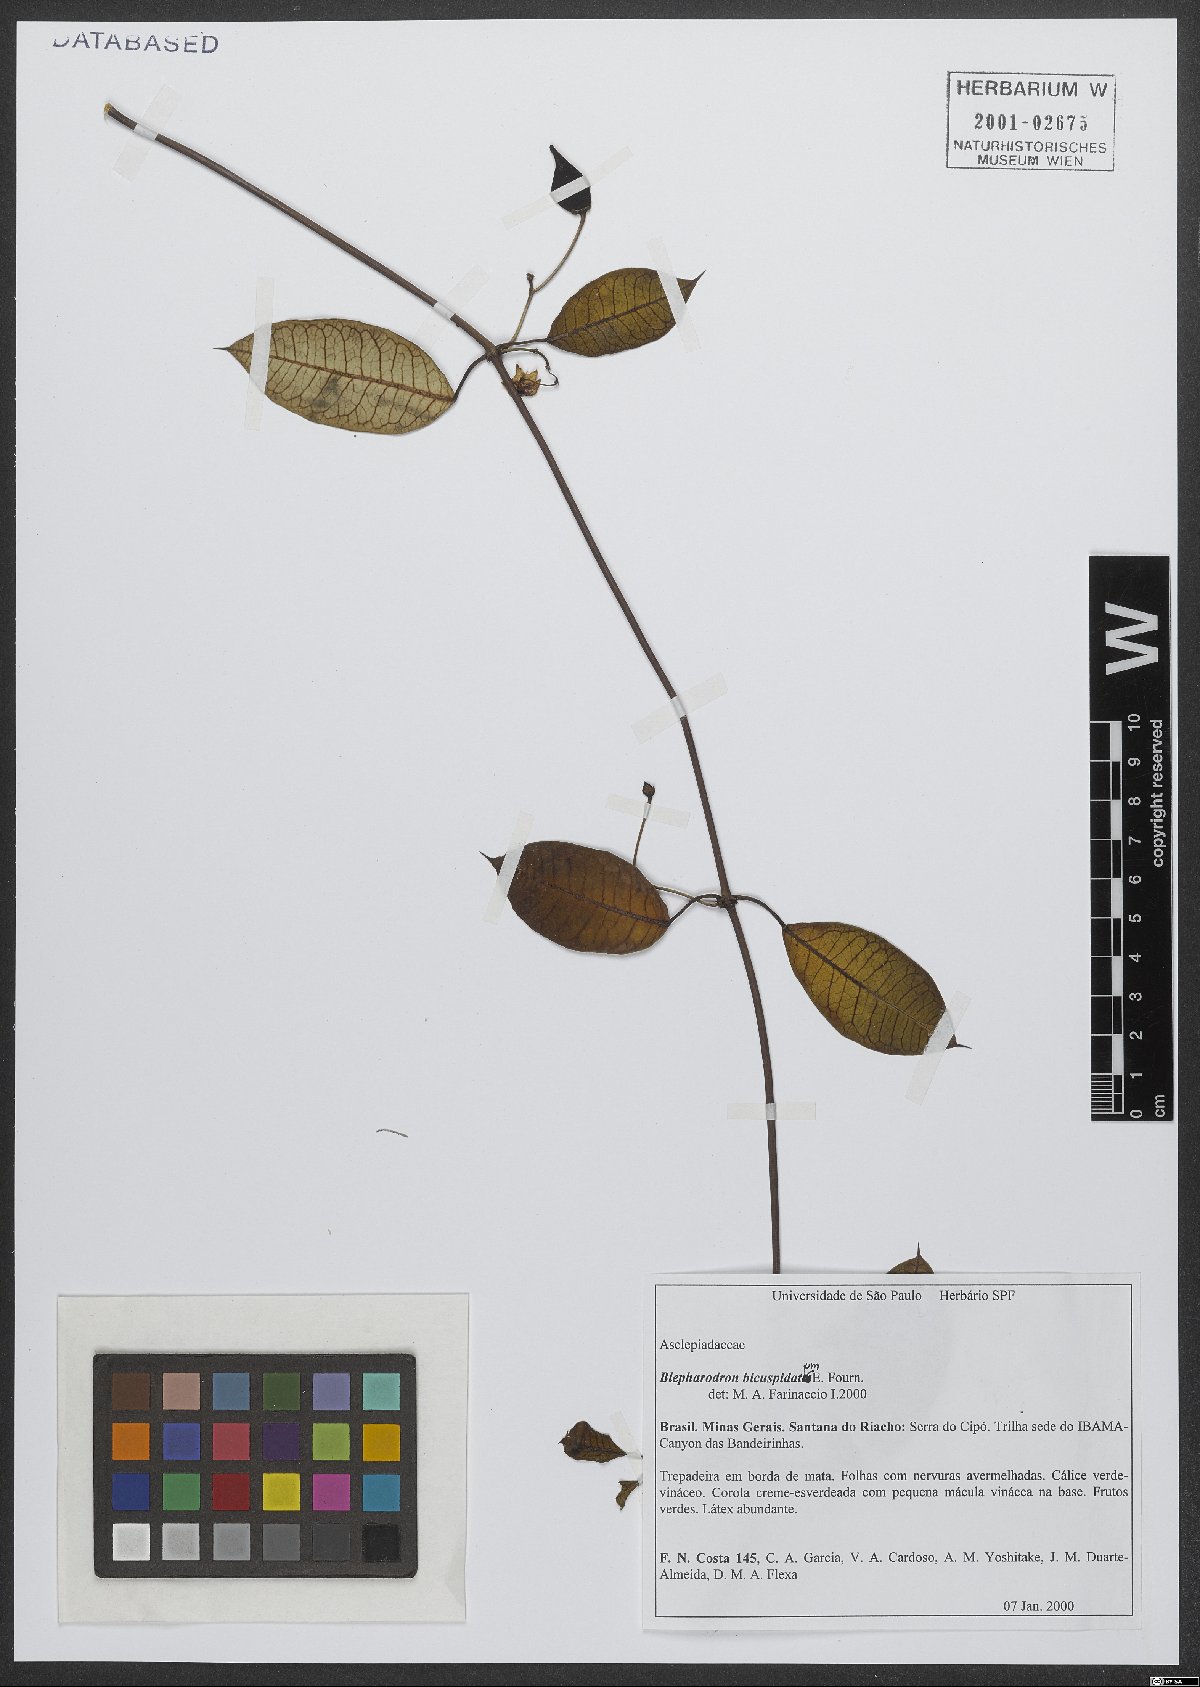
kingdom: Plantae
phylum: Tracheophyta
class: Magnoliopsida
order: Gentianales
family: Apocynaceae
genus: Blepharodon
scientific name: Blepharodon bicuspidatum
